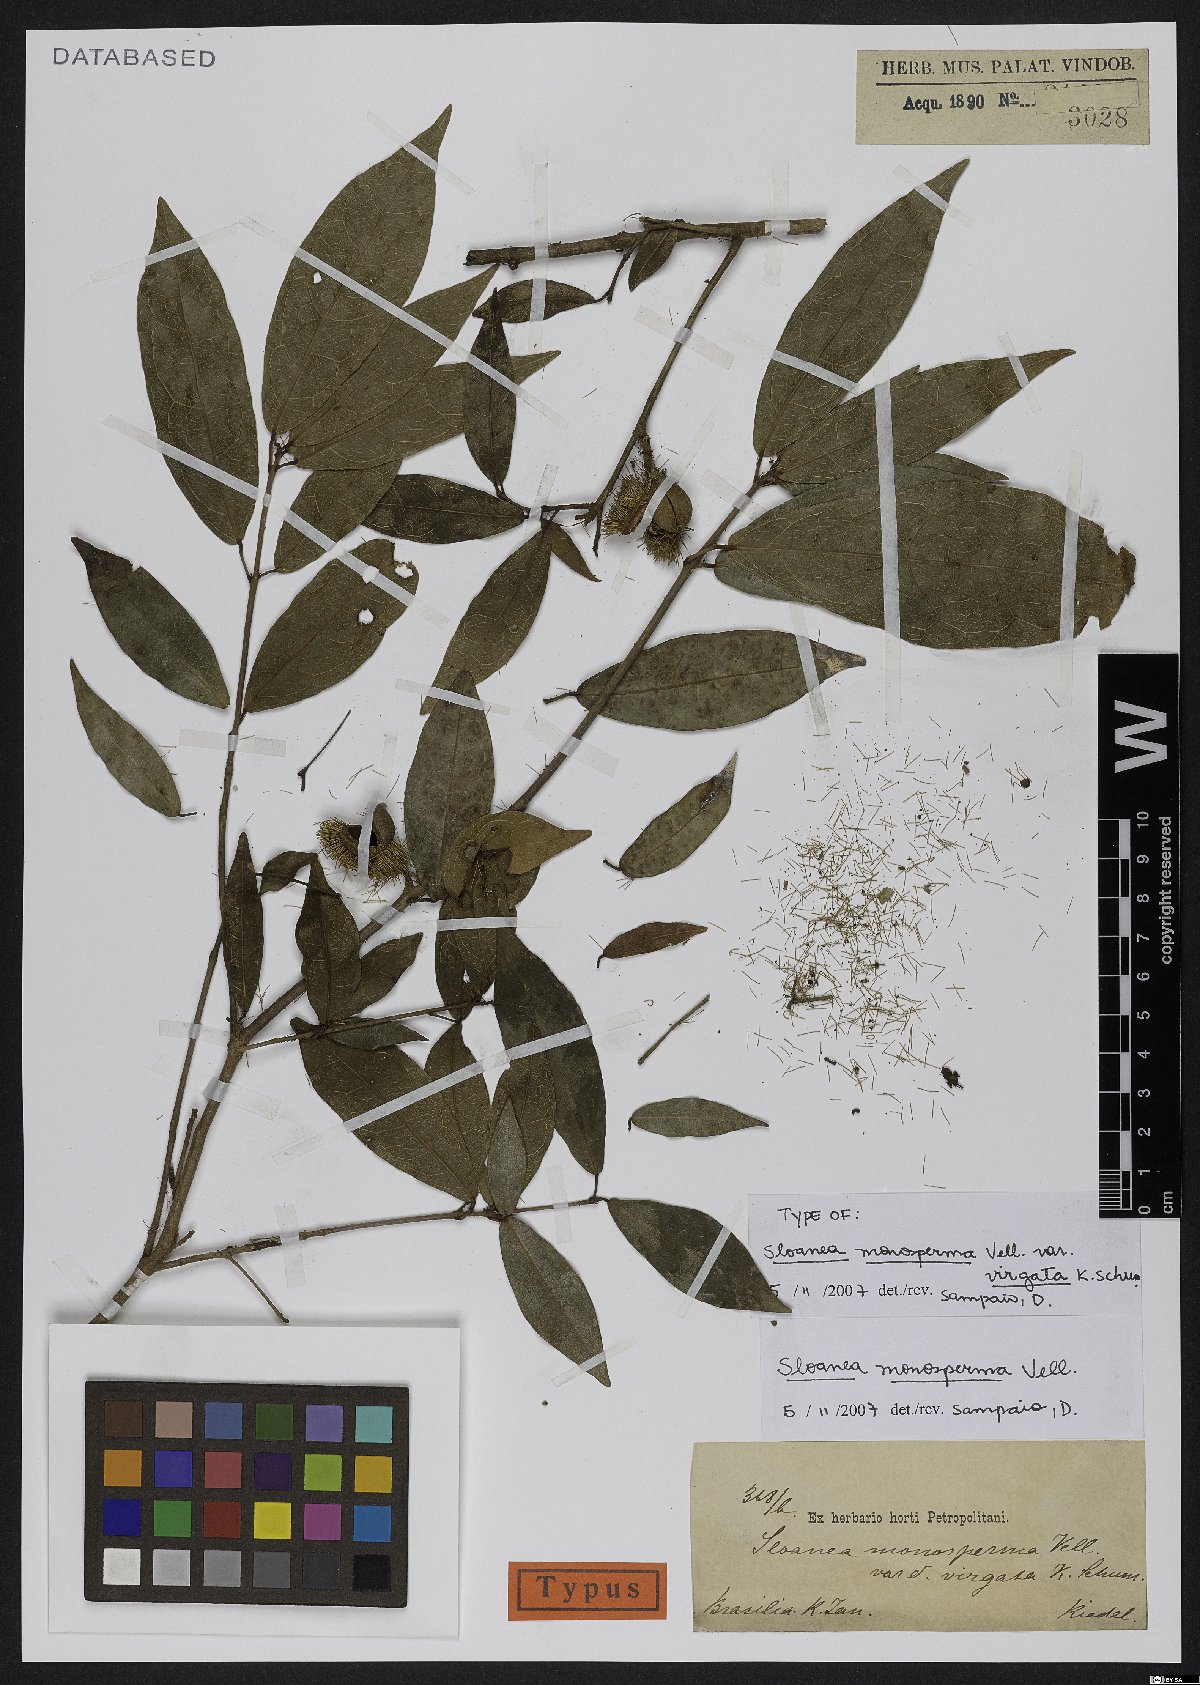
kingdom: Plantae
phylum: Tracheophyta
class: Magnoliopsida
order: Oxalidales
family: Elaeocarpaceae
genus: Sloanea
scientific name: Sloanea hirsuta
